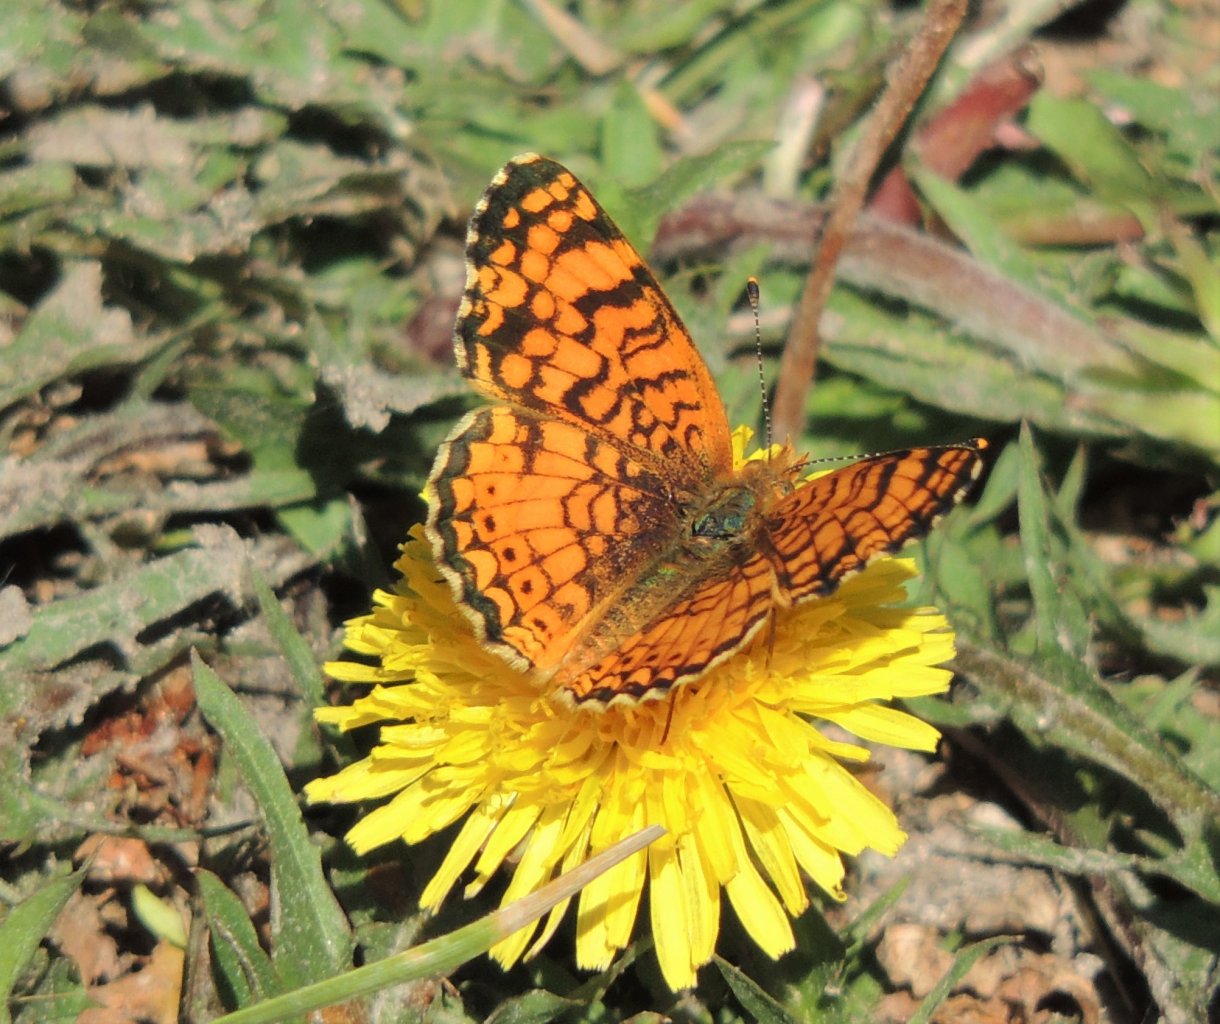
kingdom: Animalia
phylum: Arthropoda
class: Insecta
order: Lepidoptera
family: Nymphalidae
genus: Eresia
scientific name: Eresia aveyrona
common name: Mylitta Crescent
